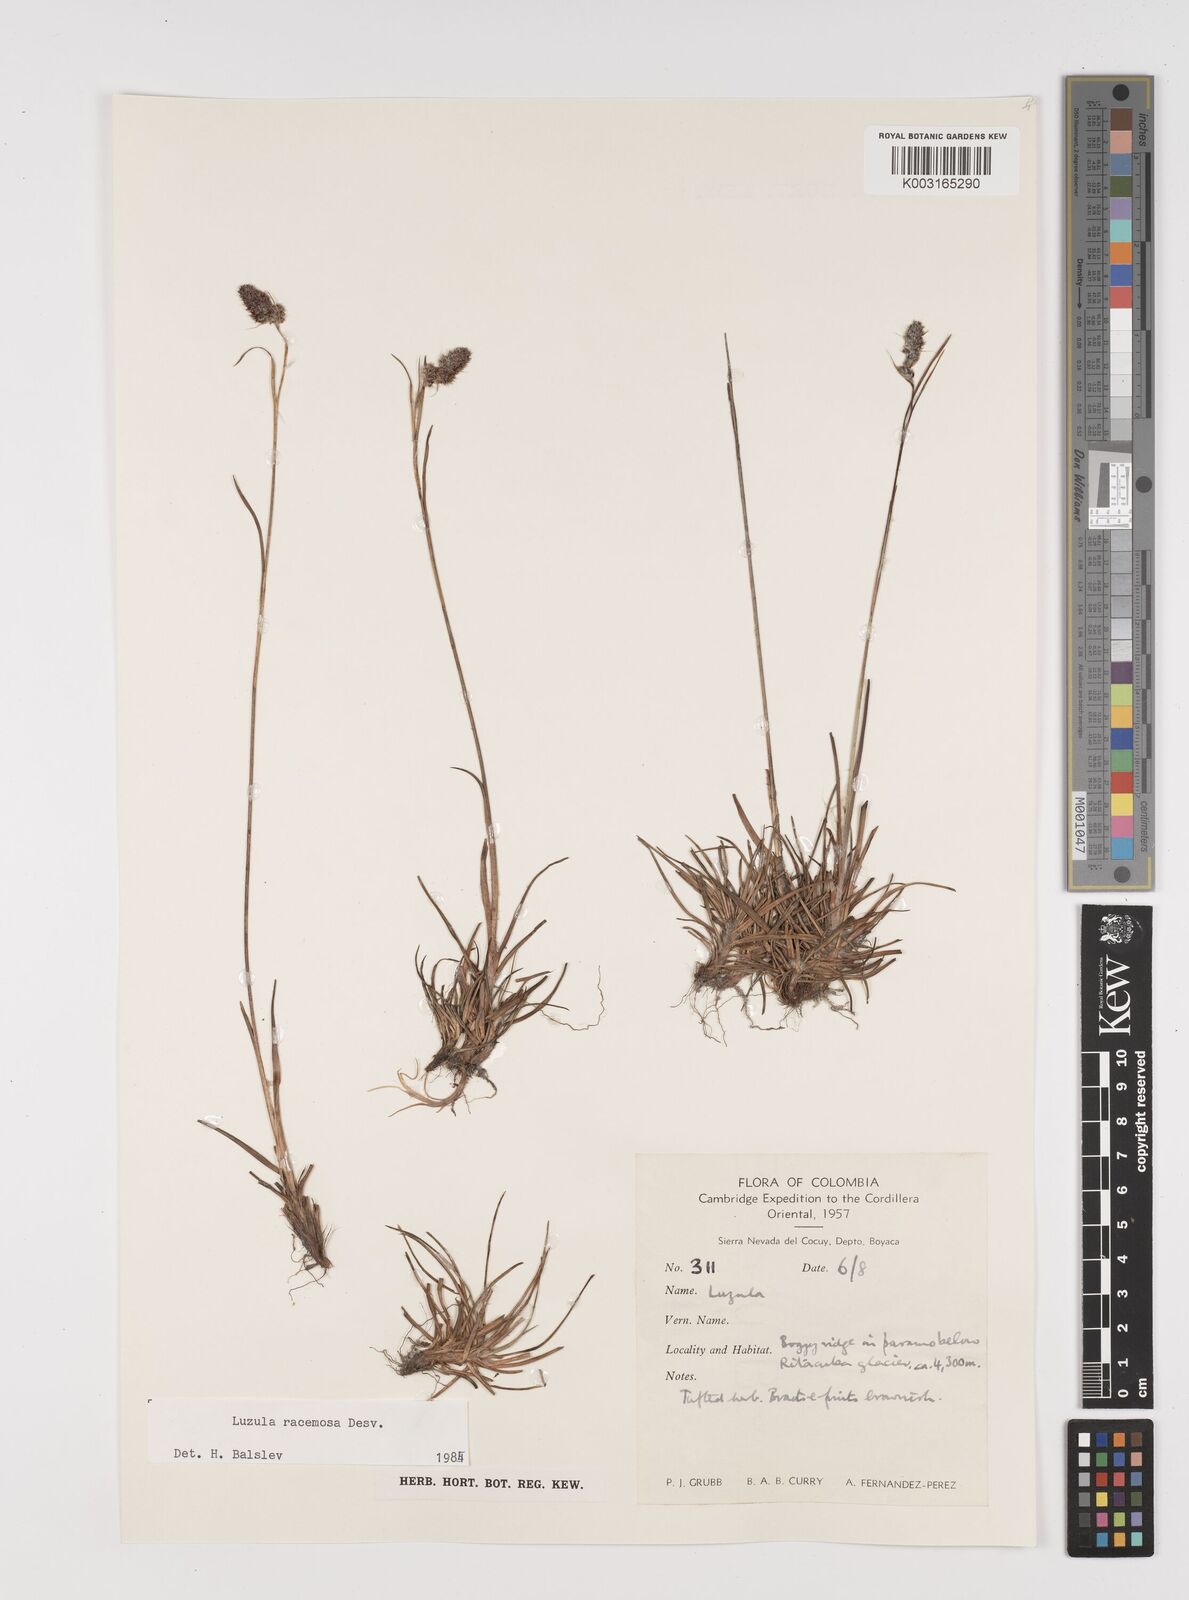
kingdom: Plantae
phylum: Tracheophyta
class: Liliopsida
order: Poales
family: Juncaceae
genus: Luzula
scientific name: Luzula racemosa
